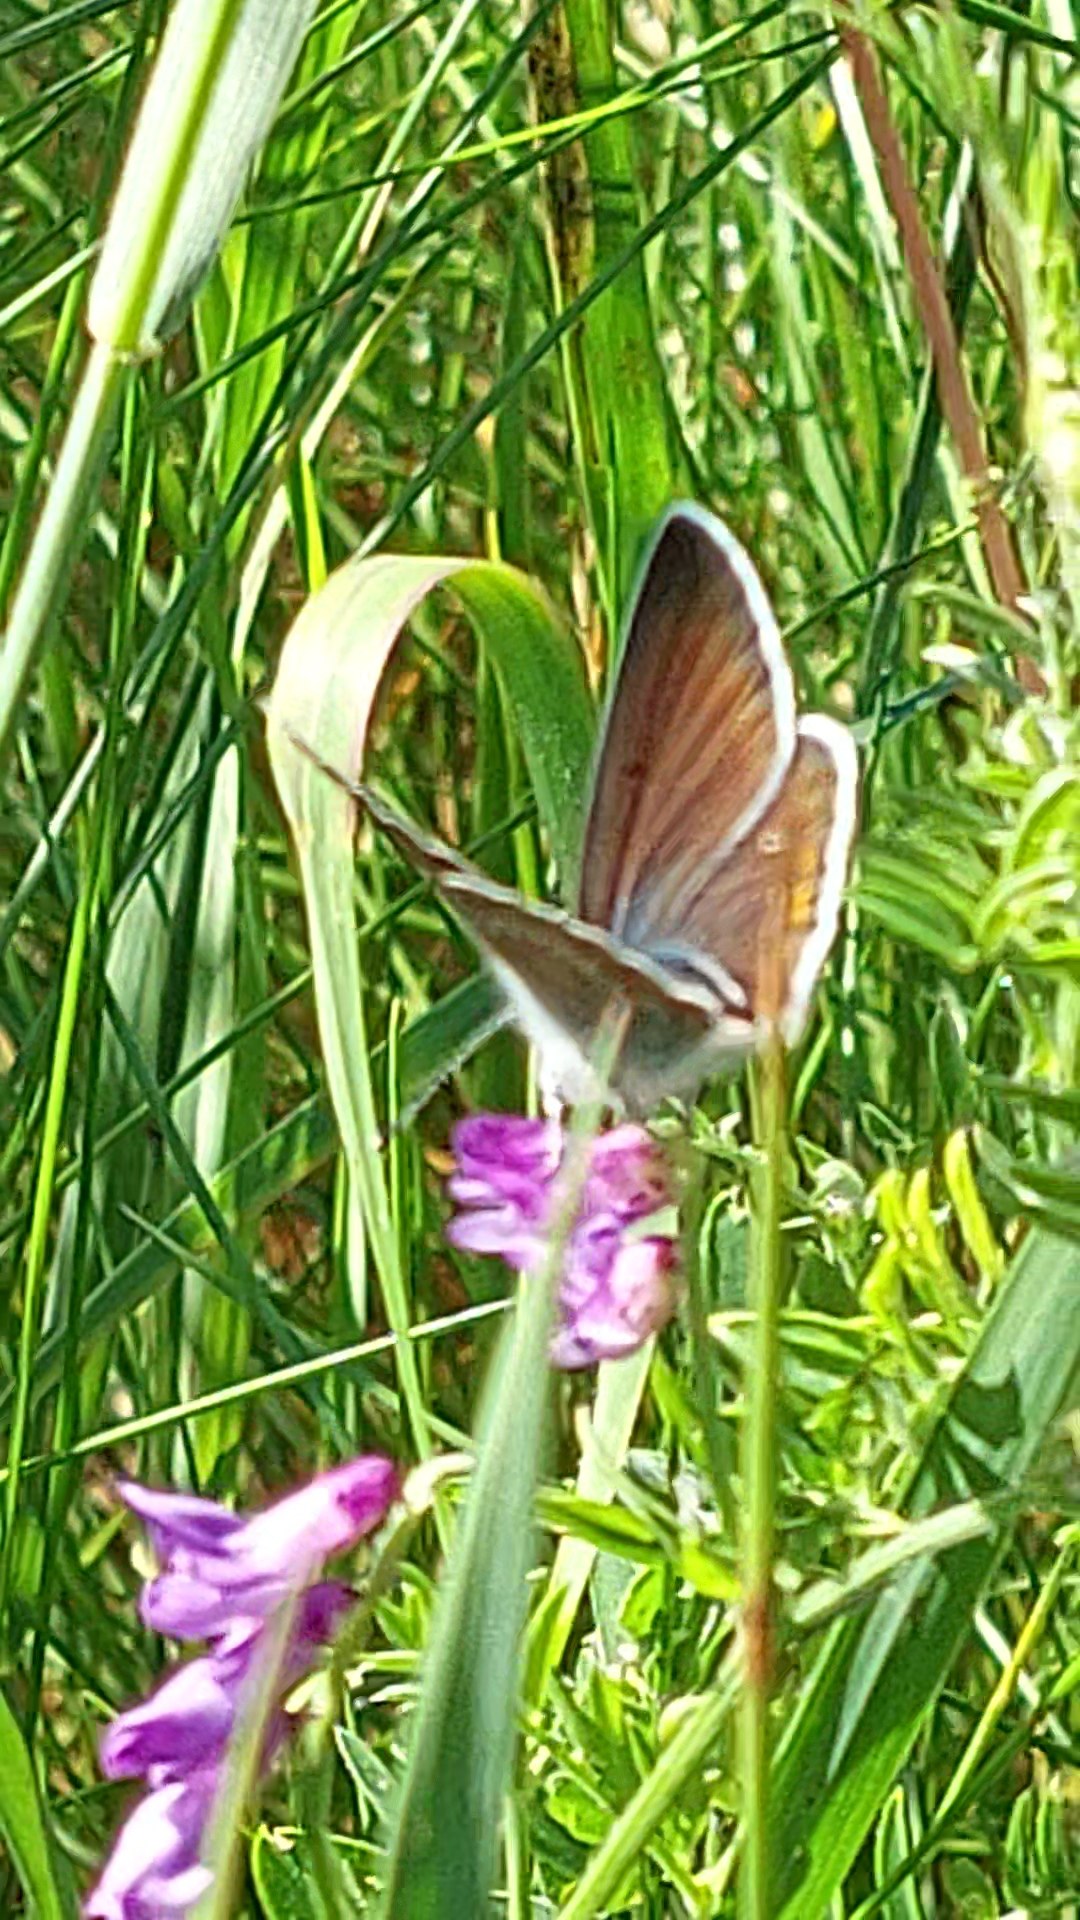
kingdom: Animalia
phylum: Arthropoda
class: Insecta
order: Lepidoptera
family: Lycaenidae
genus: Plebejus
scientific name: Plebejus amanda
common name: Isblåfugl
